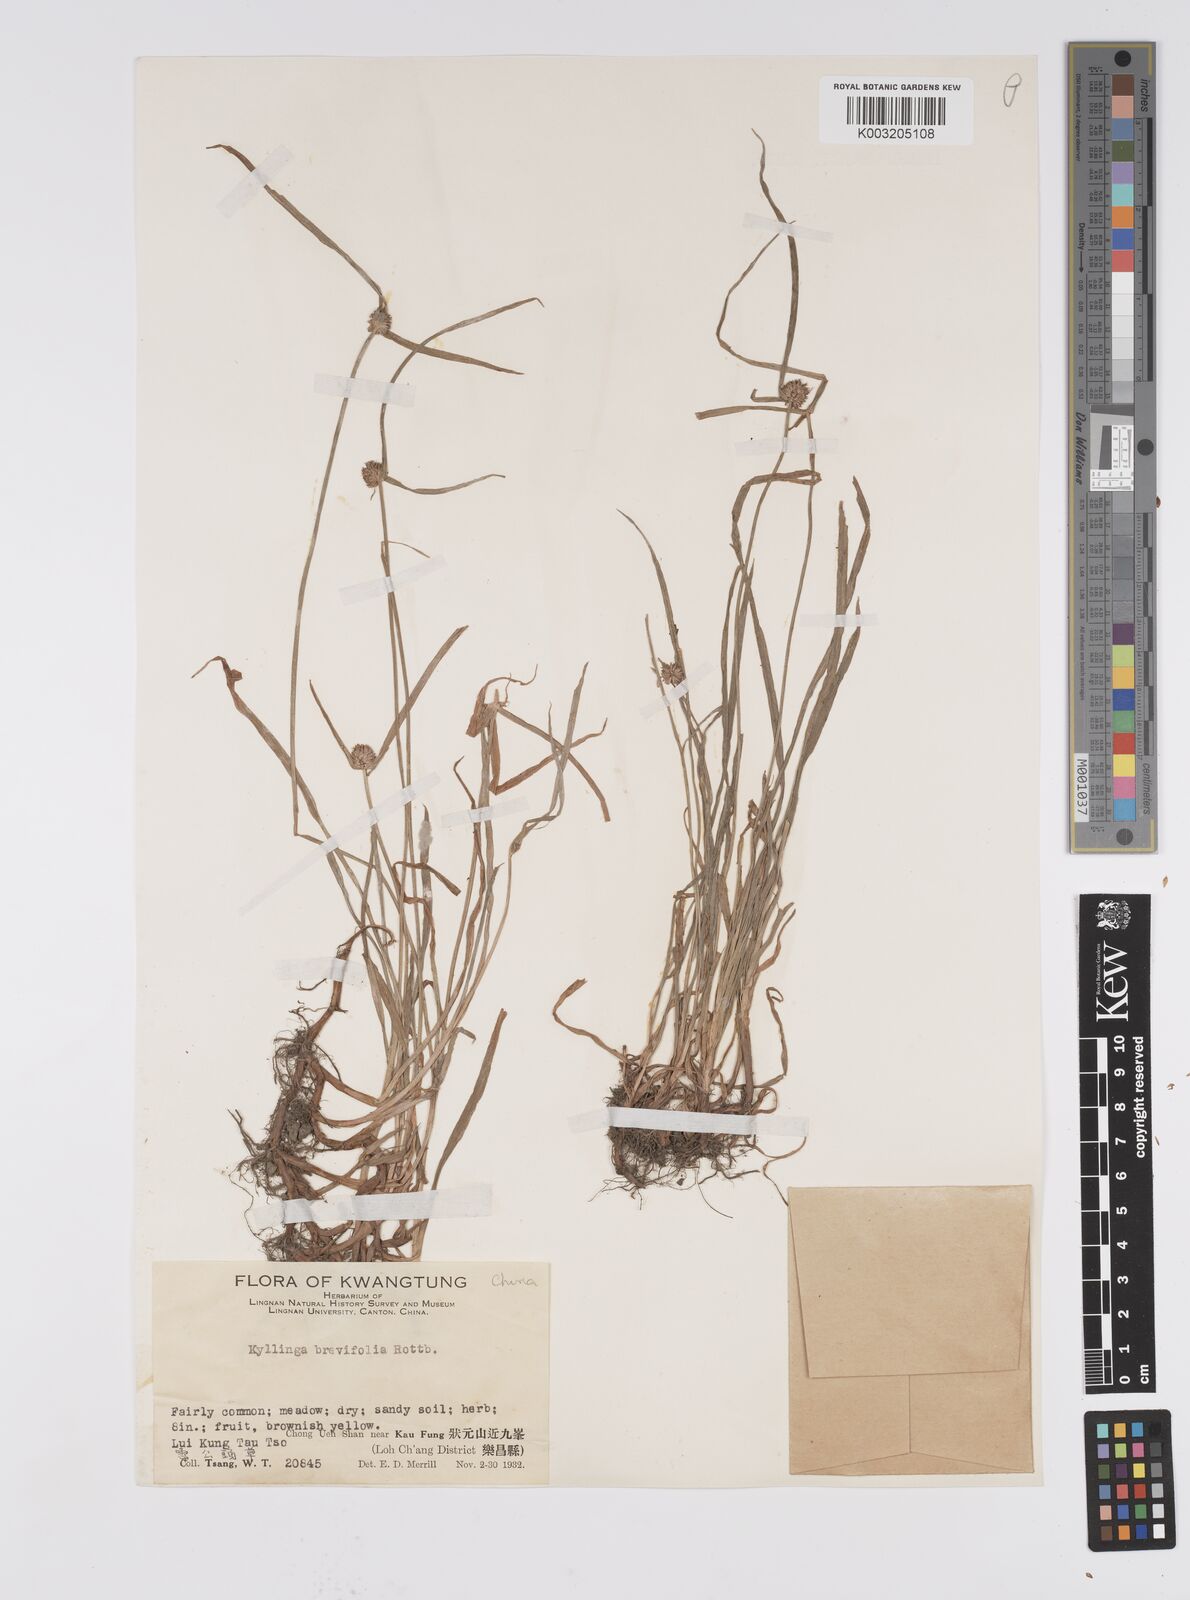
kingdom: Plantae
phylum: Tracheophyta
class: Liliopsida
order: Poales
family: Cyperaceae
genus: Cyperus
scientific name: Cyperus brevifolius
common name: Globe kyllinga
